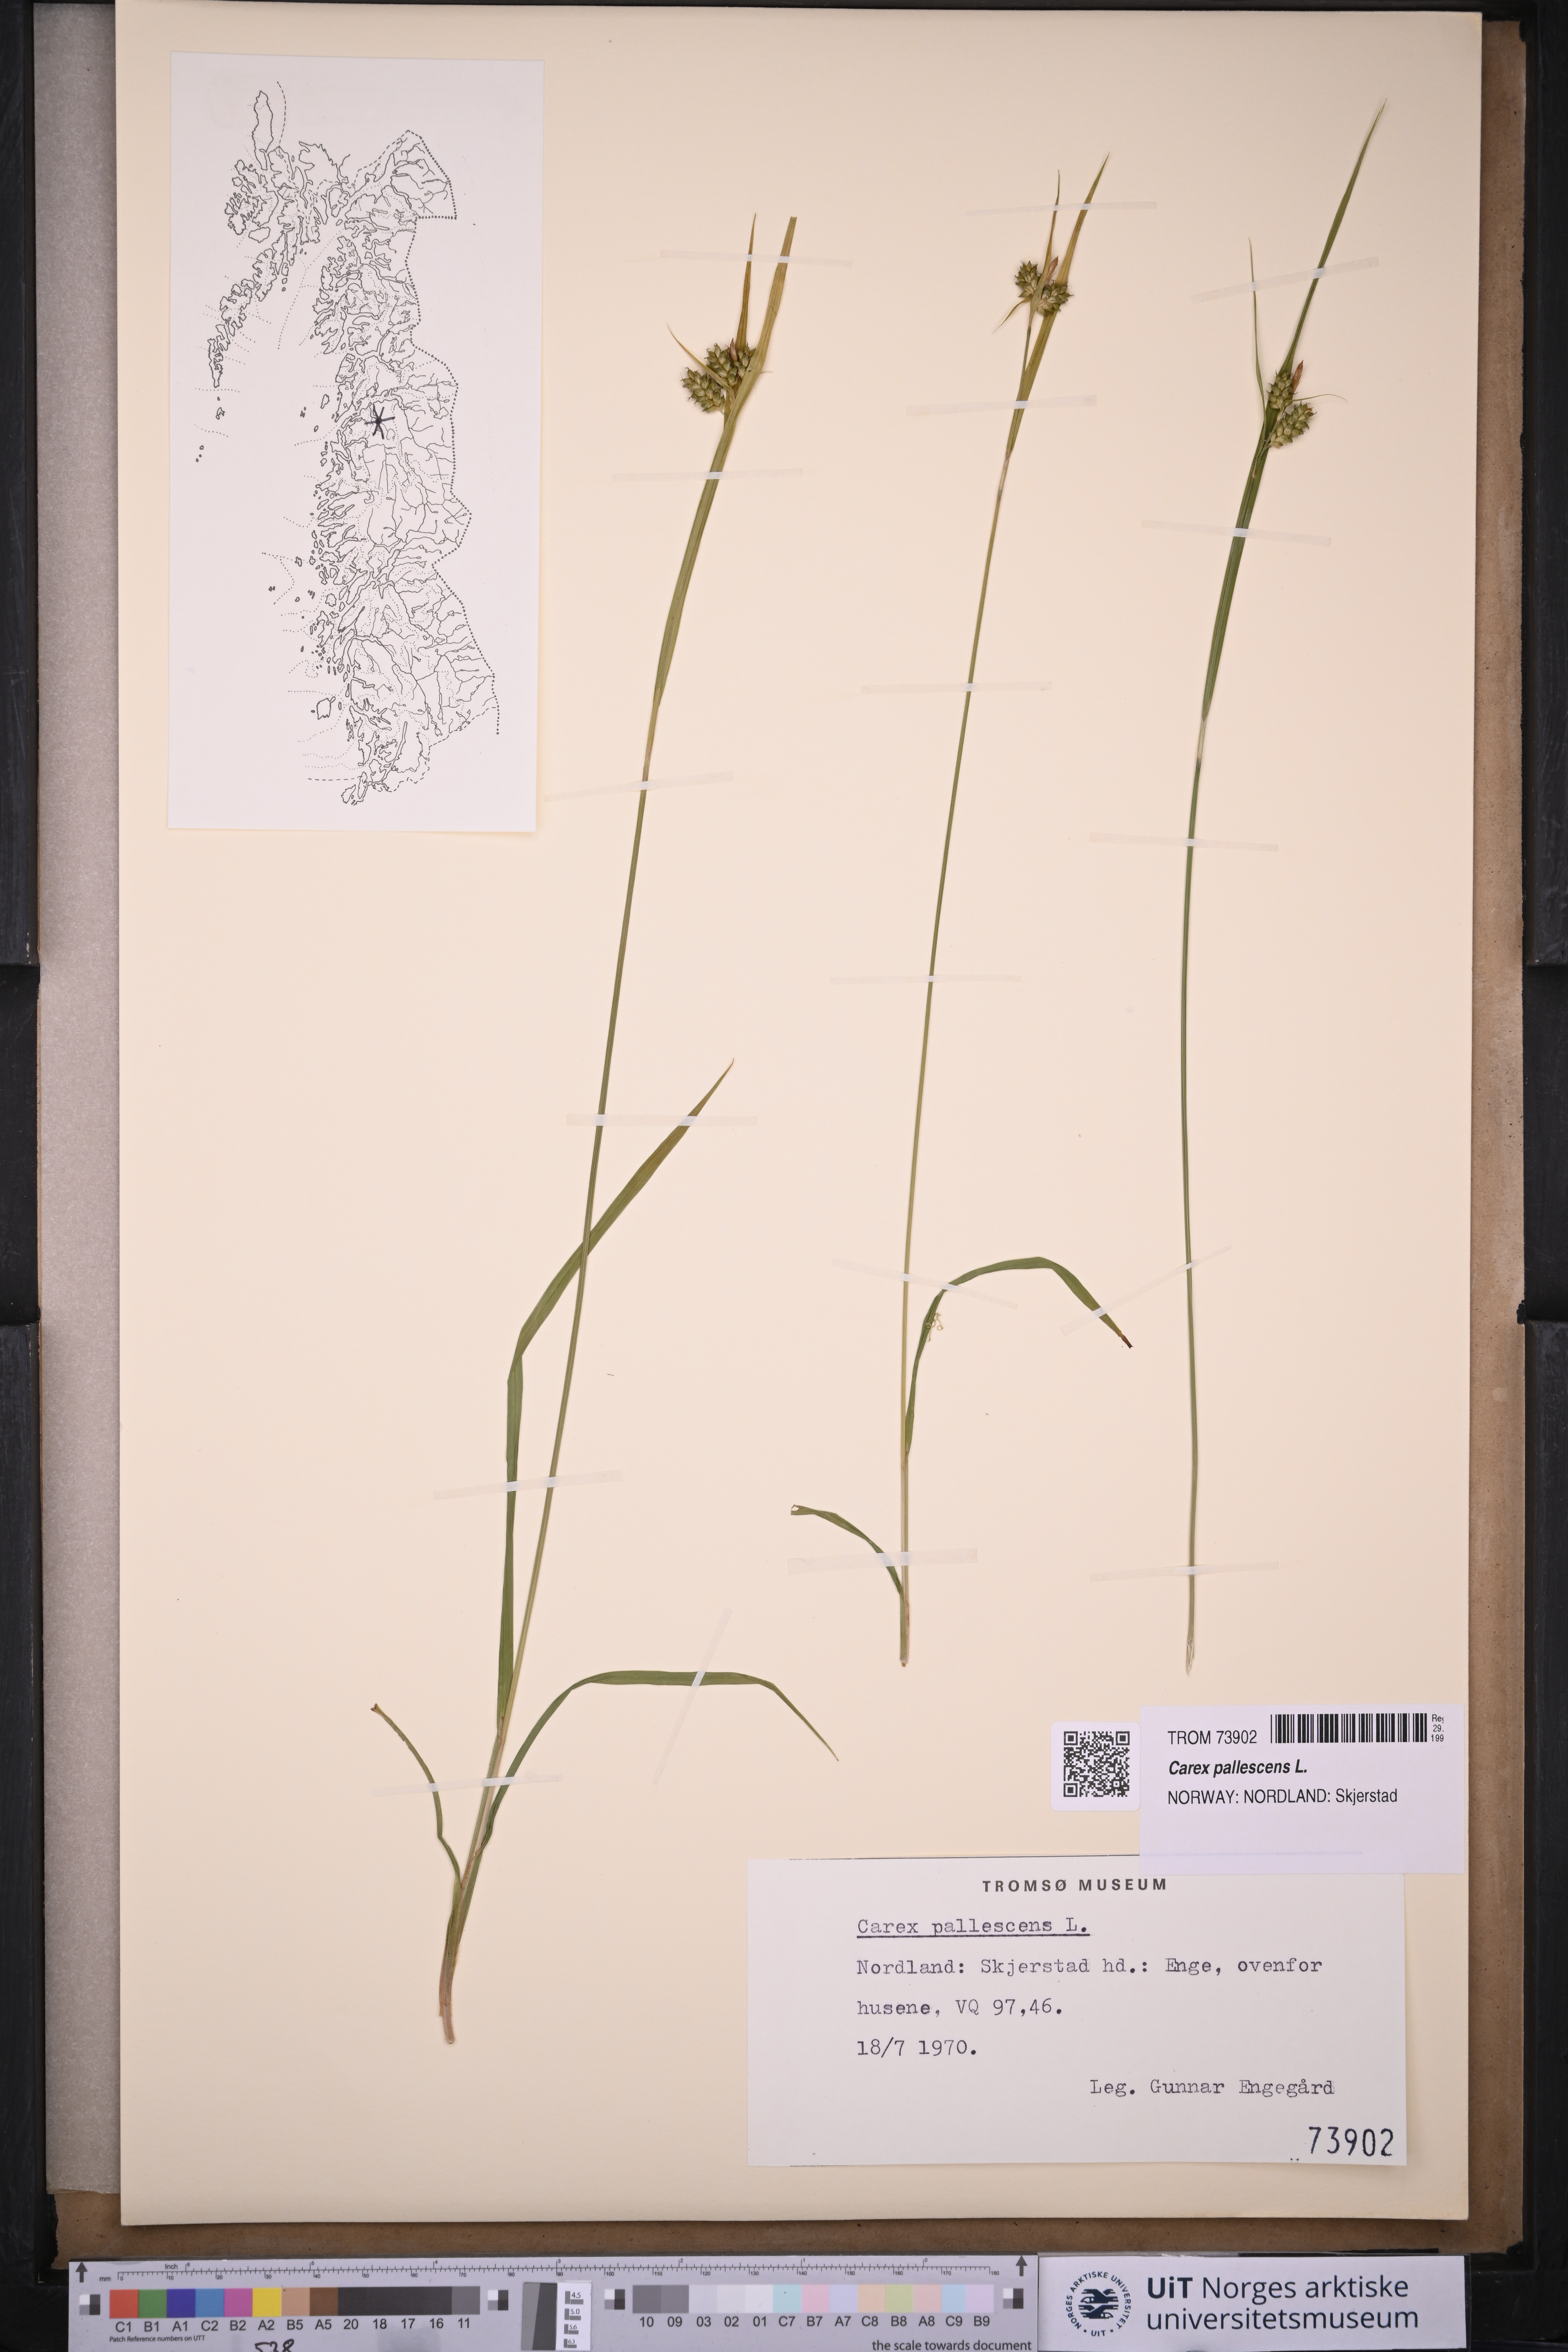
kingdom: Plantae
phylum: Tracheophyta
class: Liliopsida
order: Poales
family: Cyperaceae
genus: Carex
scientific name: Carex pallescens
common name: Pale sedge
